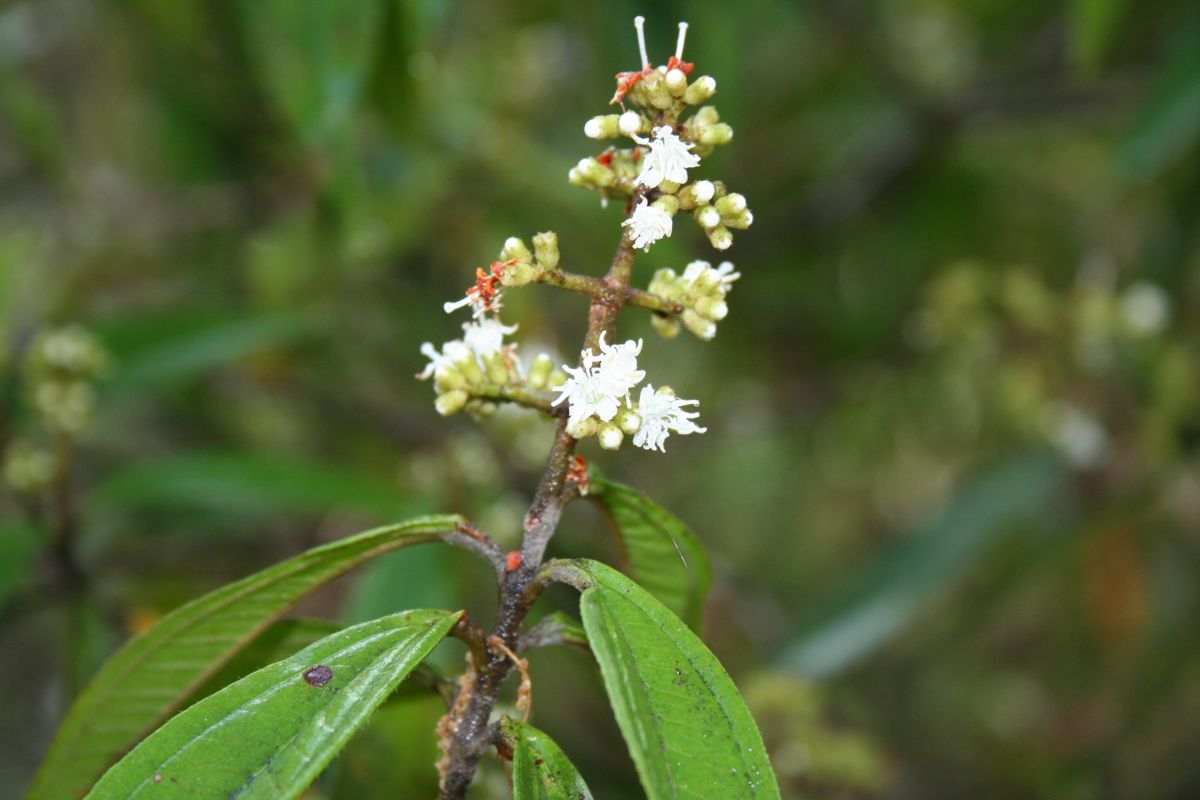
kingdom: Plantae
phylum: Tracheophyta
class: Magnoliopsida
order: Myrtales
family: Melastomataceae
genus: Miconia
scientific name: Miconia schlechtendalii
